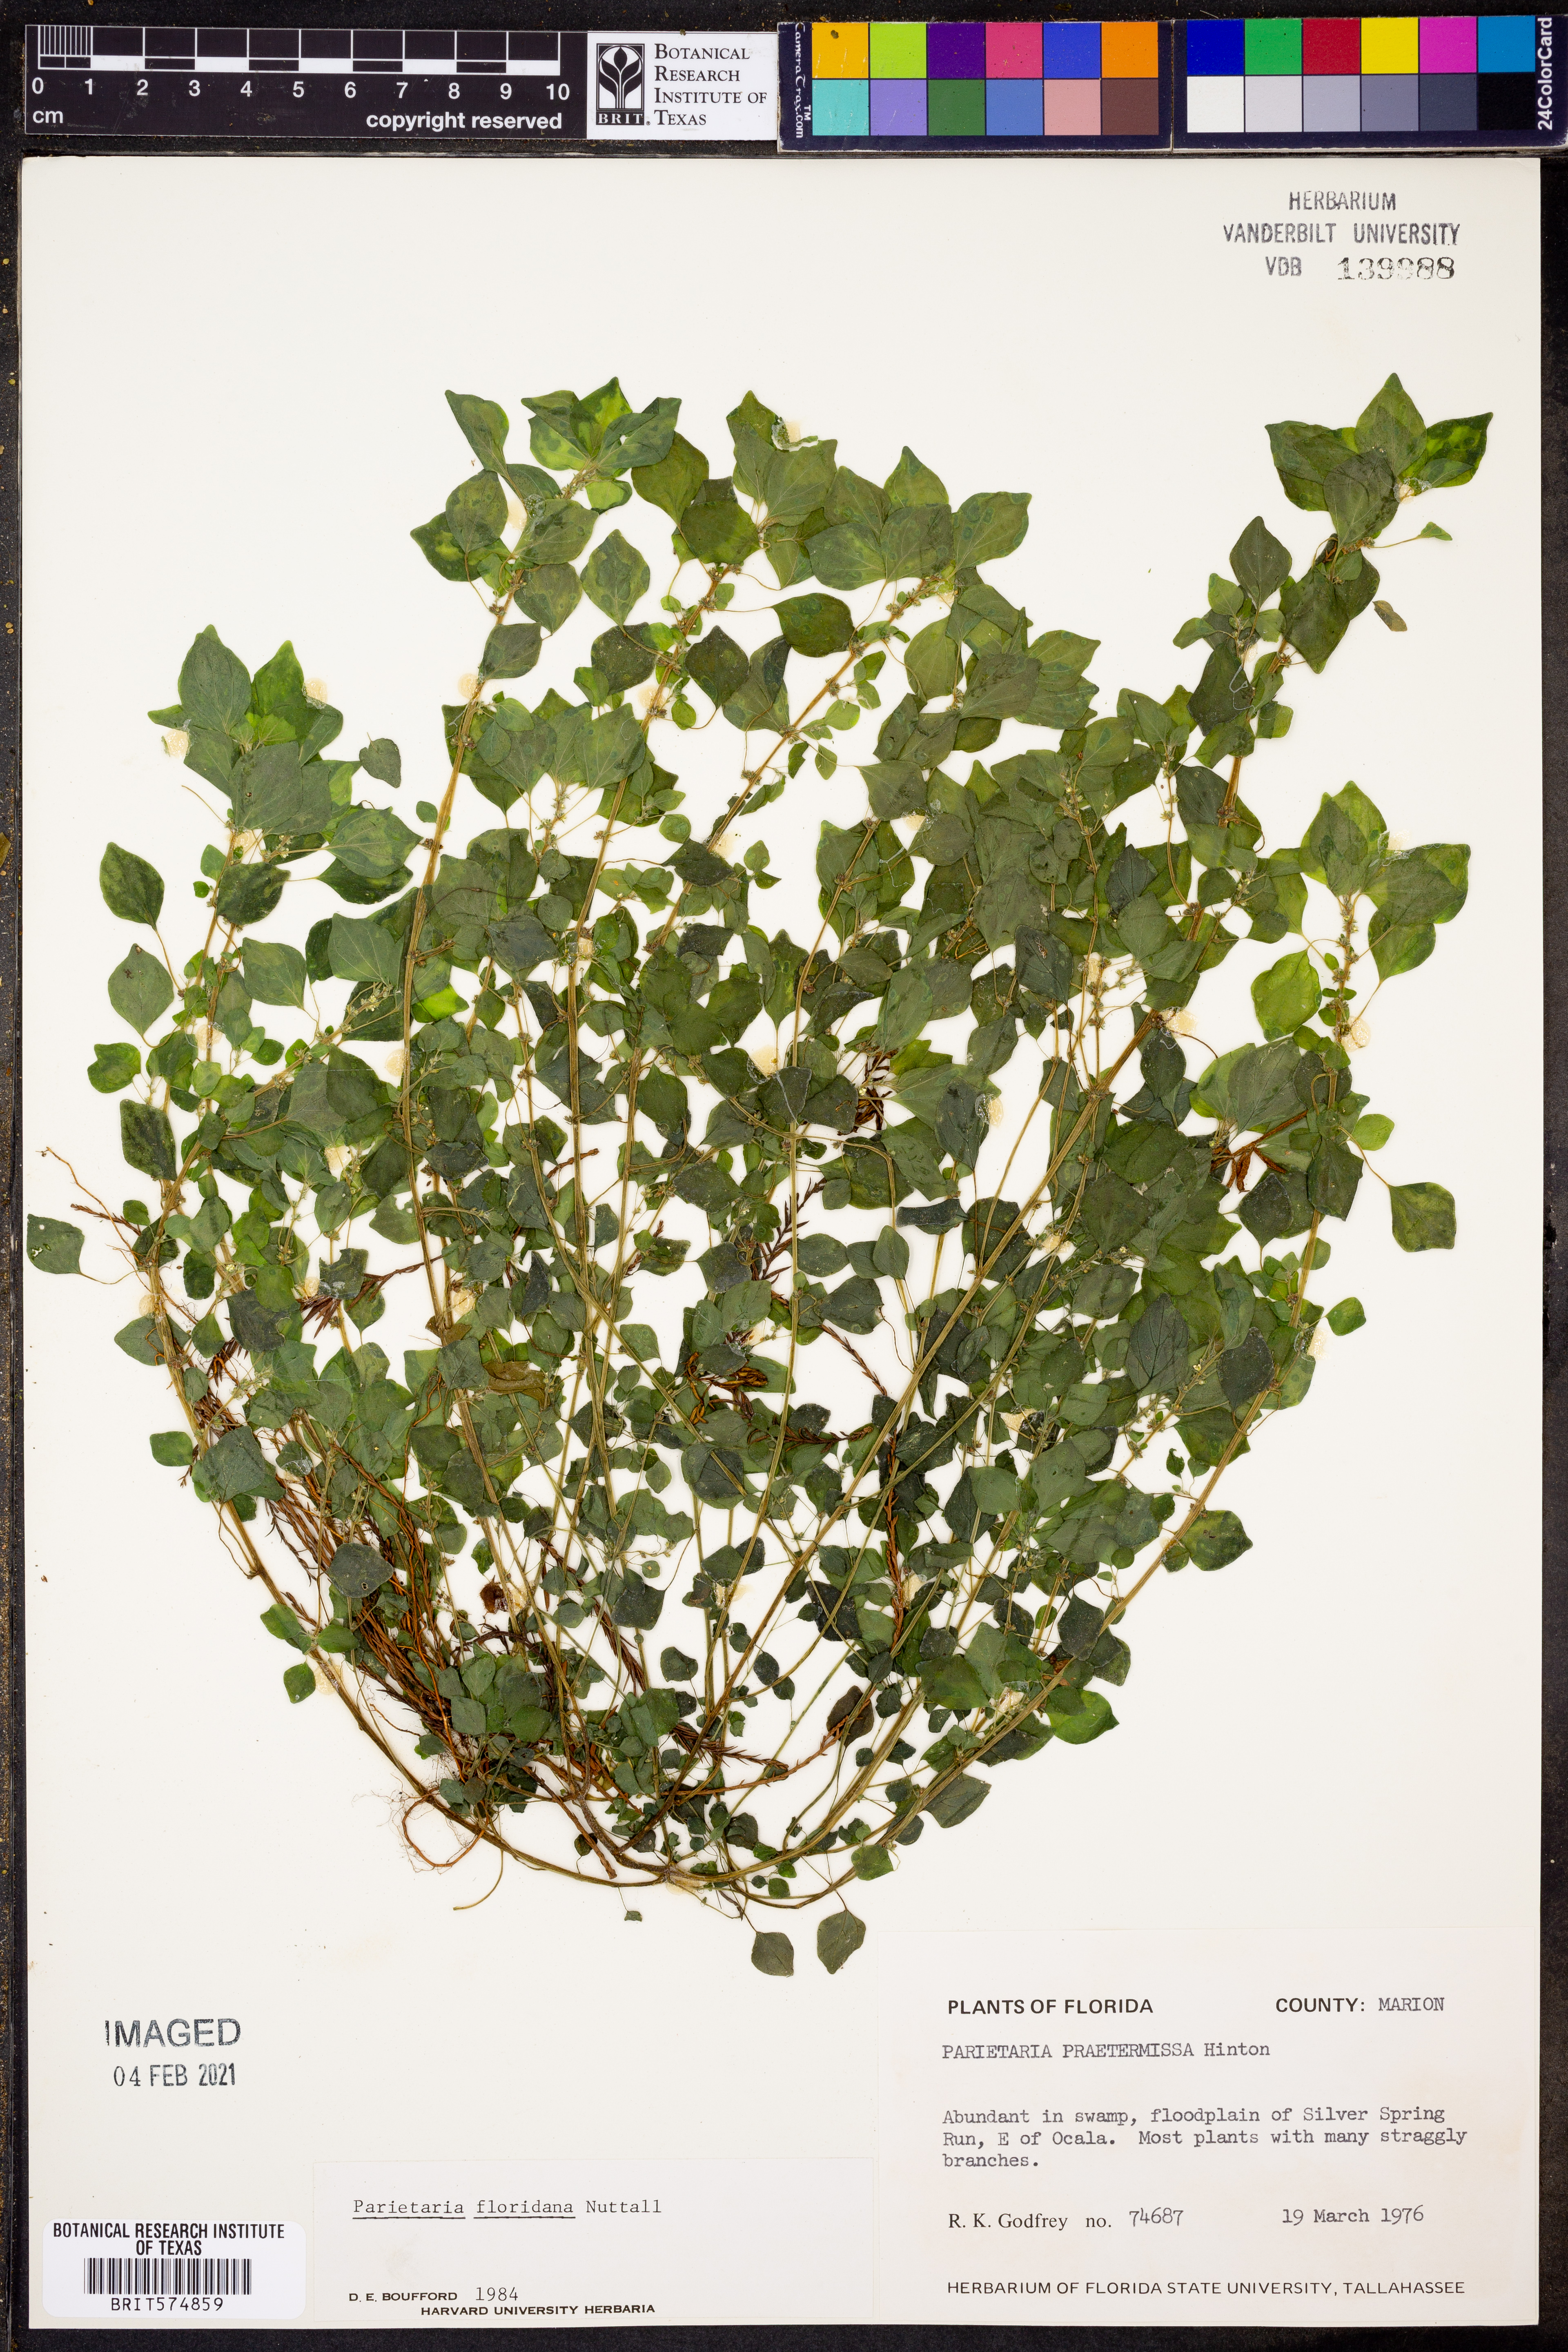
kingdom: Plantae
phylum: Tracheophyta
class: Magnoliopsida
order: Rosales
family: Urticaceae
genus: Parietaria
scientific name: Parietaria floridana
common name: Florida pellitory
